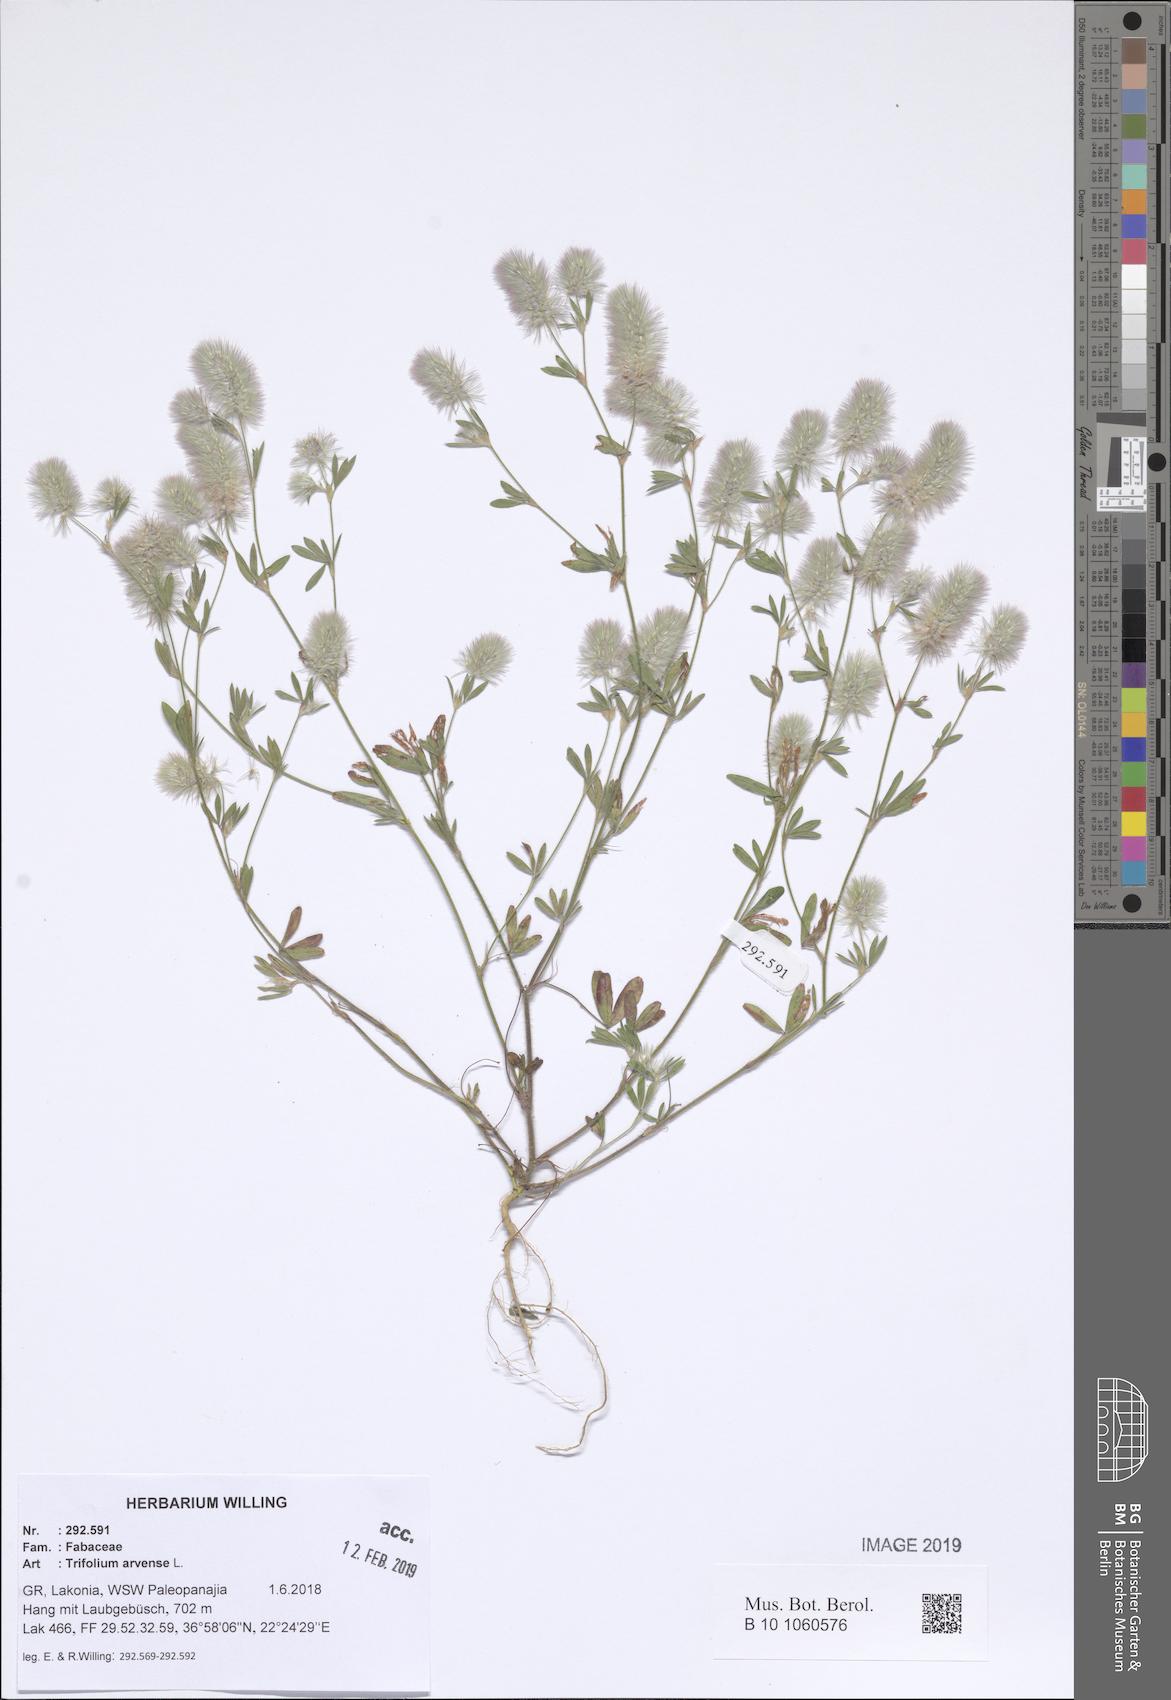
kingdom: Plantae
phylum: Tracheophyta
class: Magnoliopsida
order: Fabales
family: Fabaceae
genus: Trifolium
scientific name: Trifolium arvense
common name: Hare's-foot clover
